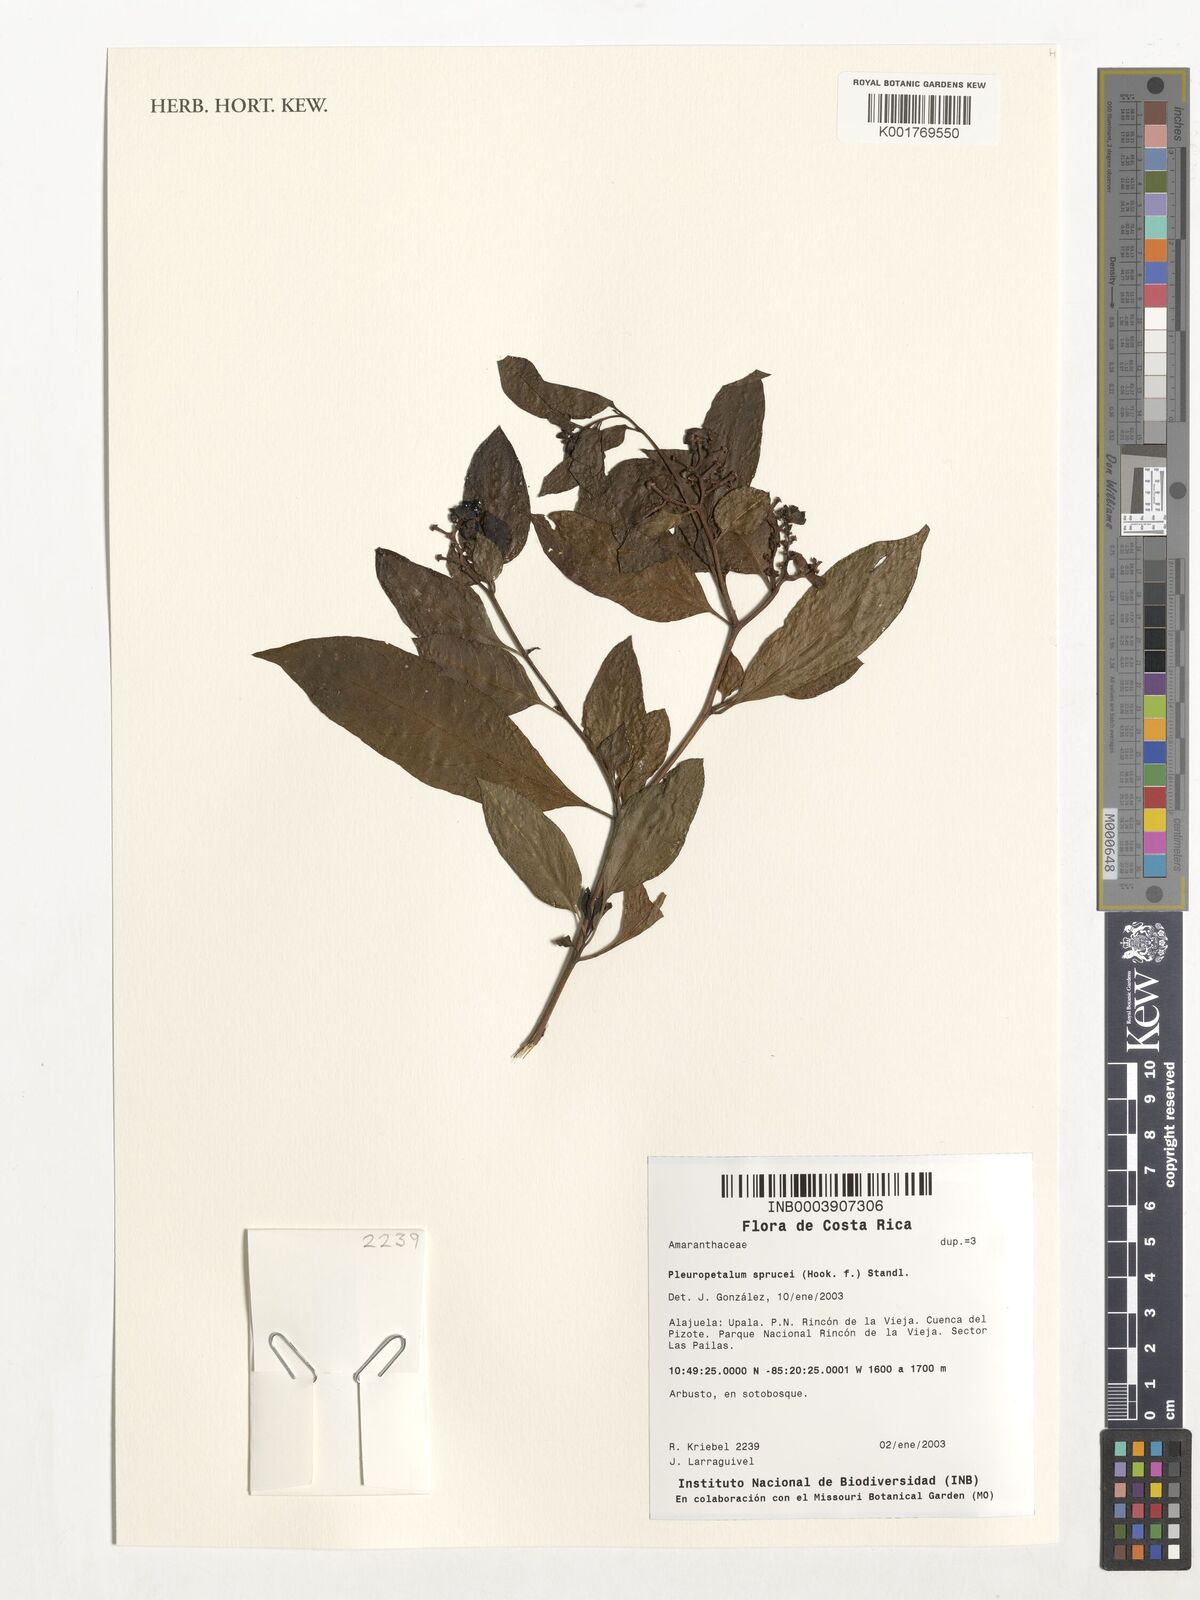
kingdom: Plantae
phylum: Tracheophyta
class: Magnoliopsida
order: Caryophyllales
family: Amaranthaceae
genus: Pleuropetalum
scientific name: Pleuropetalum sprucei
